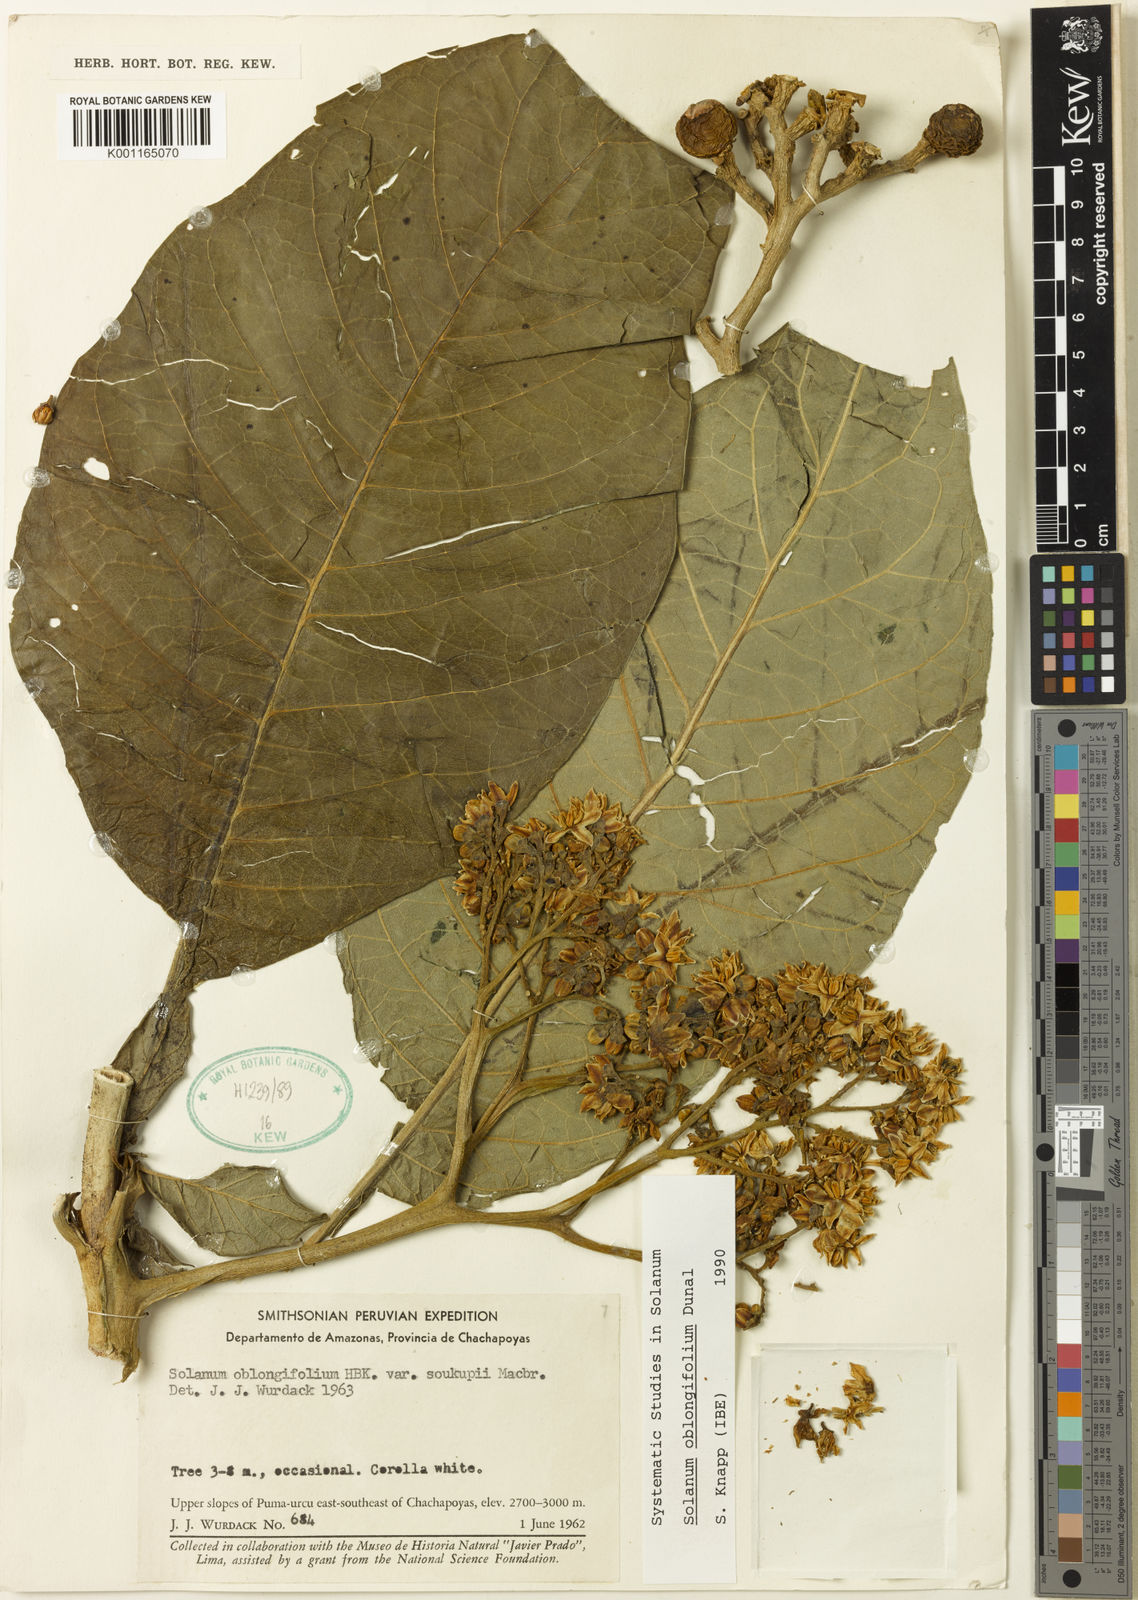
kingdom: Plantae
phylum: Tracheophyta
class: Magnoliopsida
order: Solanales
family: Solanaceae
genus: Solanum
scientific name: Solanum oblongifolium
